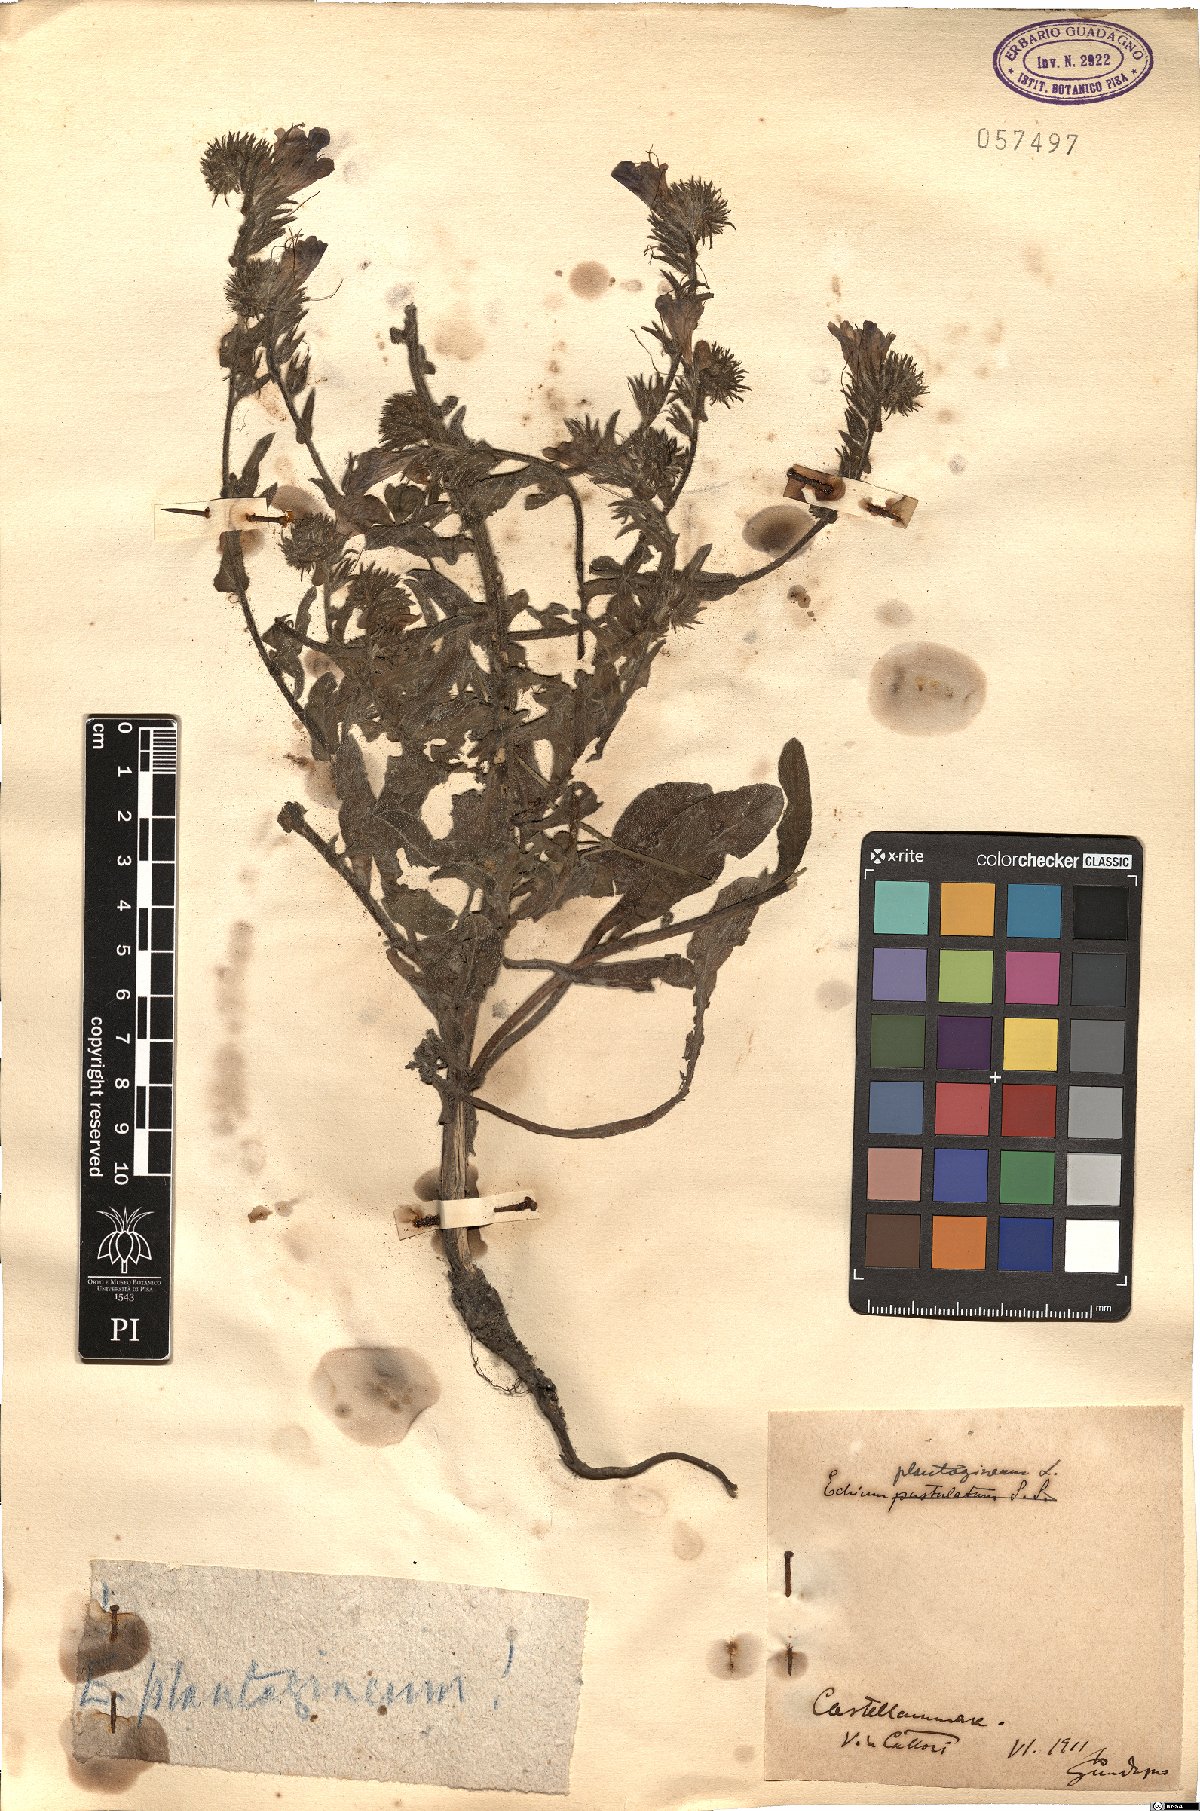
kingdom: Plantae
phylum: Tracheophyta
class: Magnoliopsida
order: Boraginales
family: Boraginaceae
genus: Echium
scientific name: Echium plantagineum
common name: Purple viper's-bugloss
